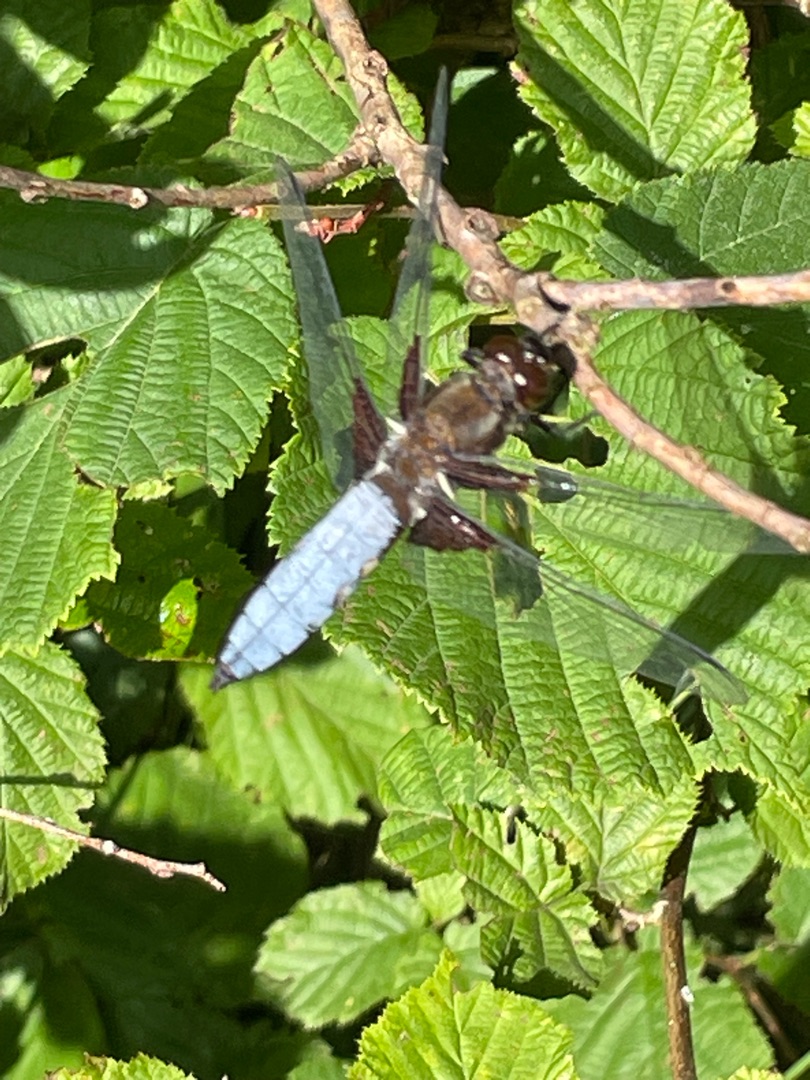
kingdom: Animalia
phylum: Arthropoda
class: Insecta
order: Odonata
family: Libellulidae
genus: Libellula
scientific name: Libellula depressa
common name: Blå libel
